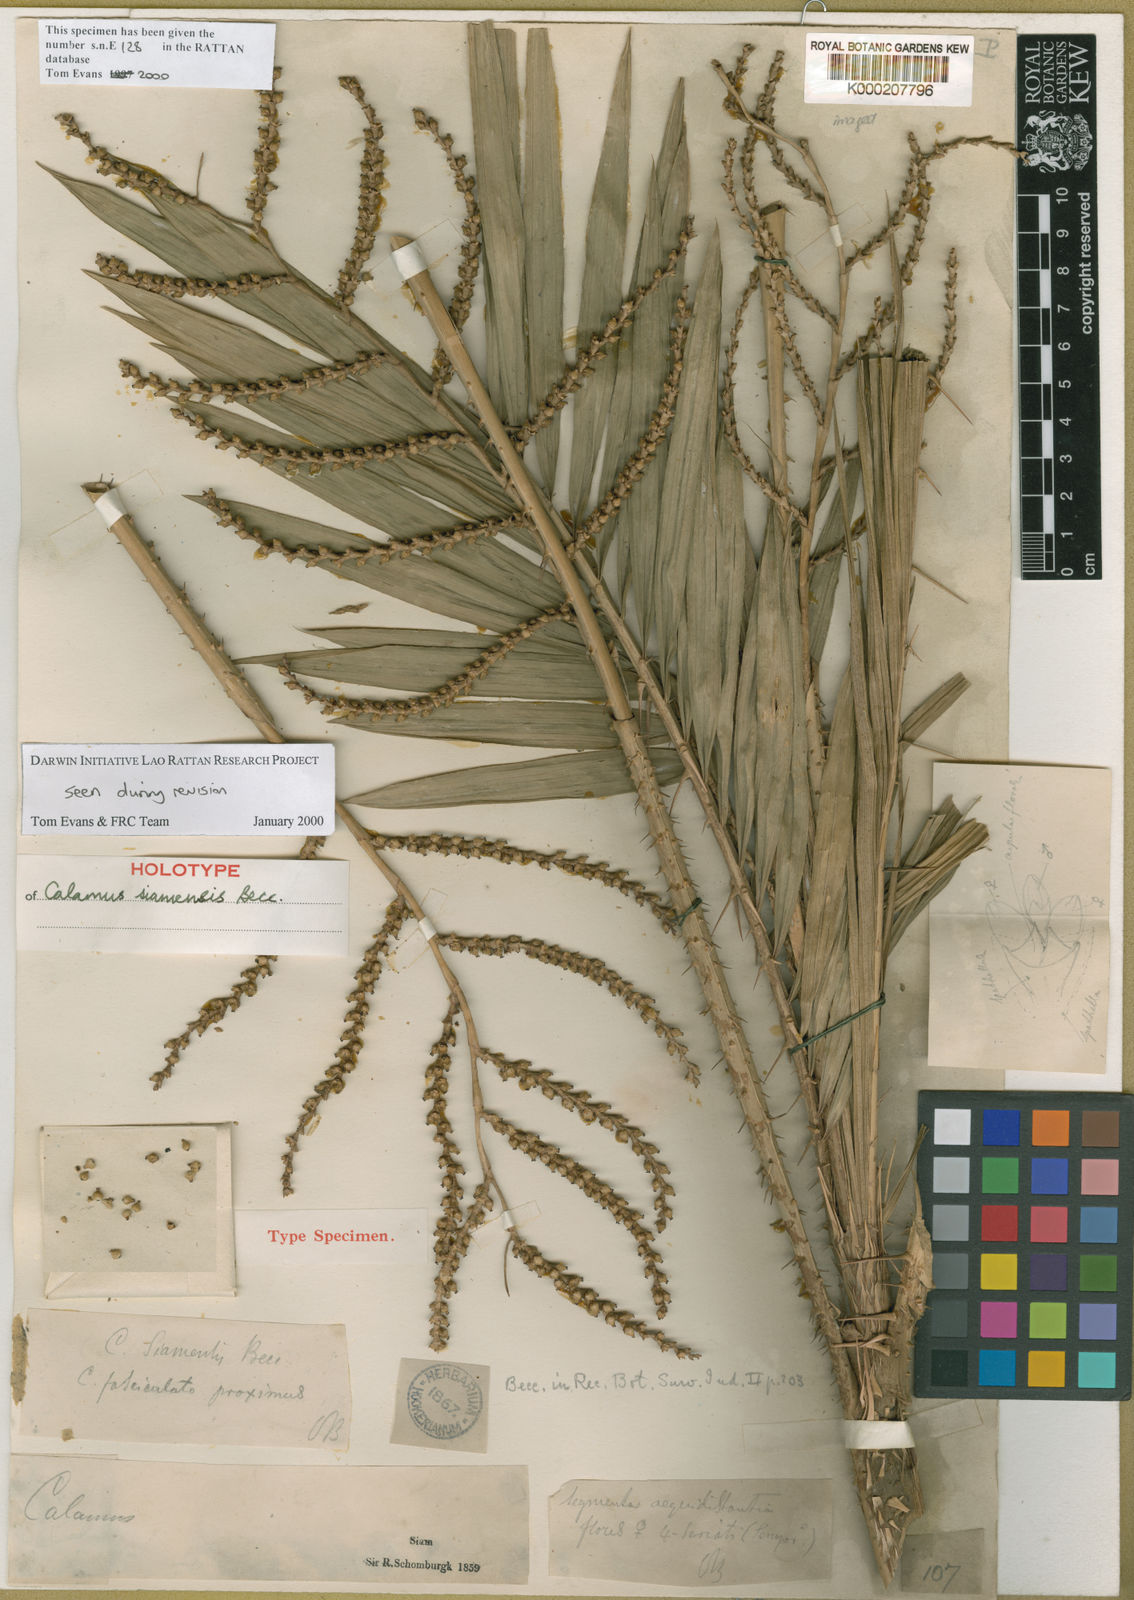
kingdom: Plantae
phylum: Tracheophyta
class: Liliopsida
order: Arecales
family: Arecaceae
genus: Calamus
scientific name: Calamus viminalis
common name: Osier-like rattan palm
